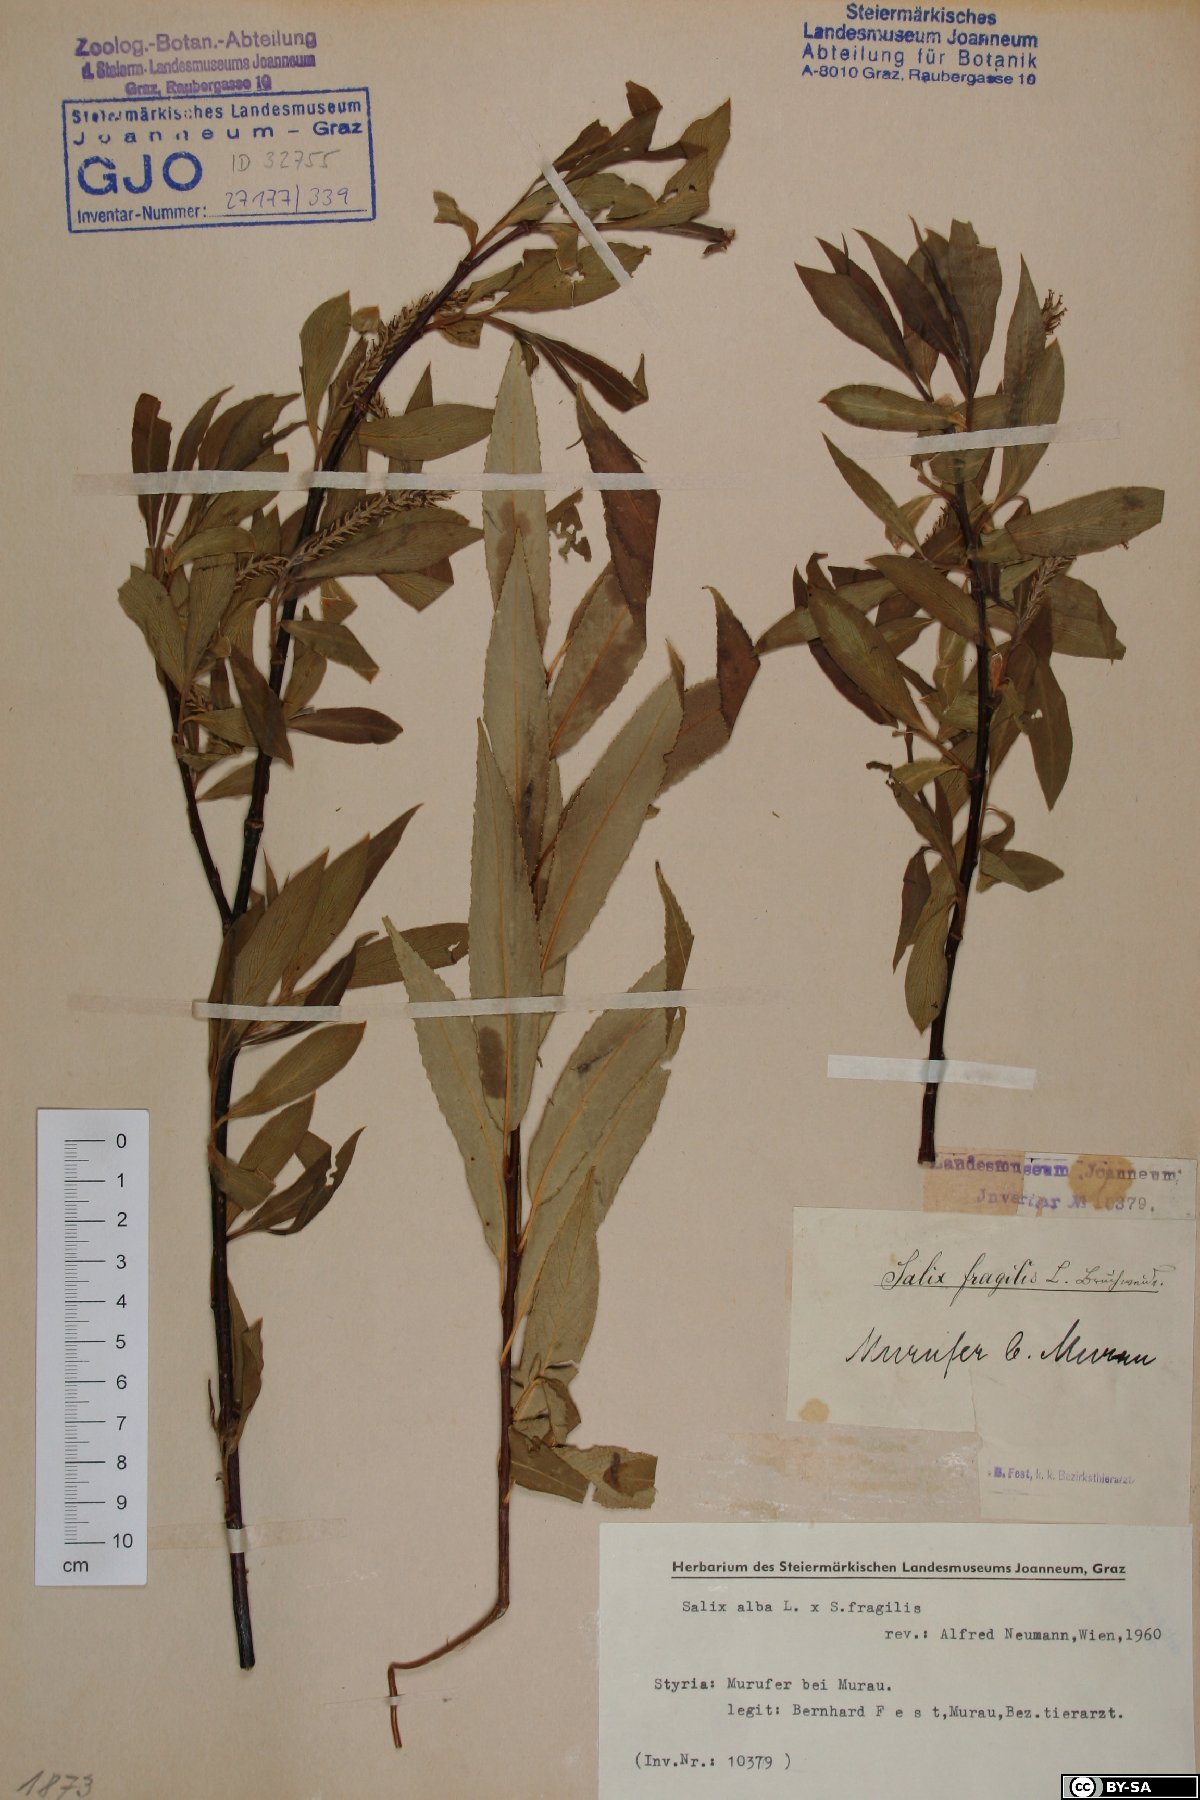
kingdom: Plantae
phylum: Tracheophyta
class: Magnoliopsida
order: Malpighiales
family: Salicaceae
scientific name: Salicaceae
